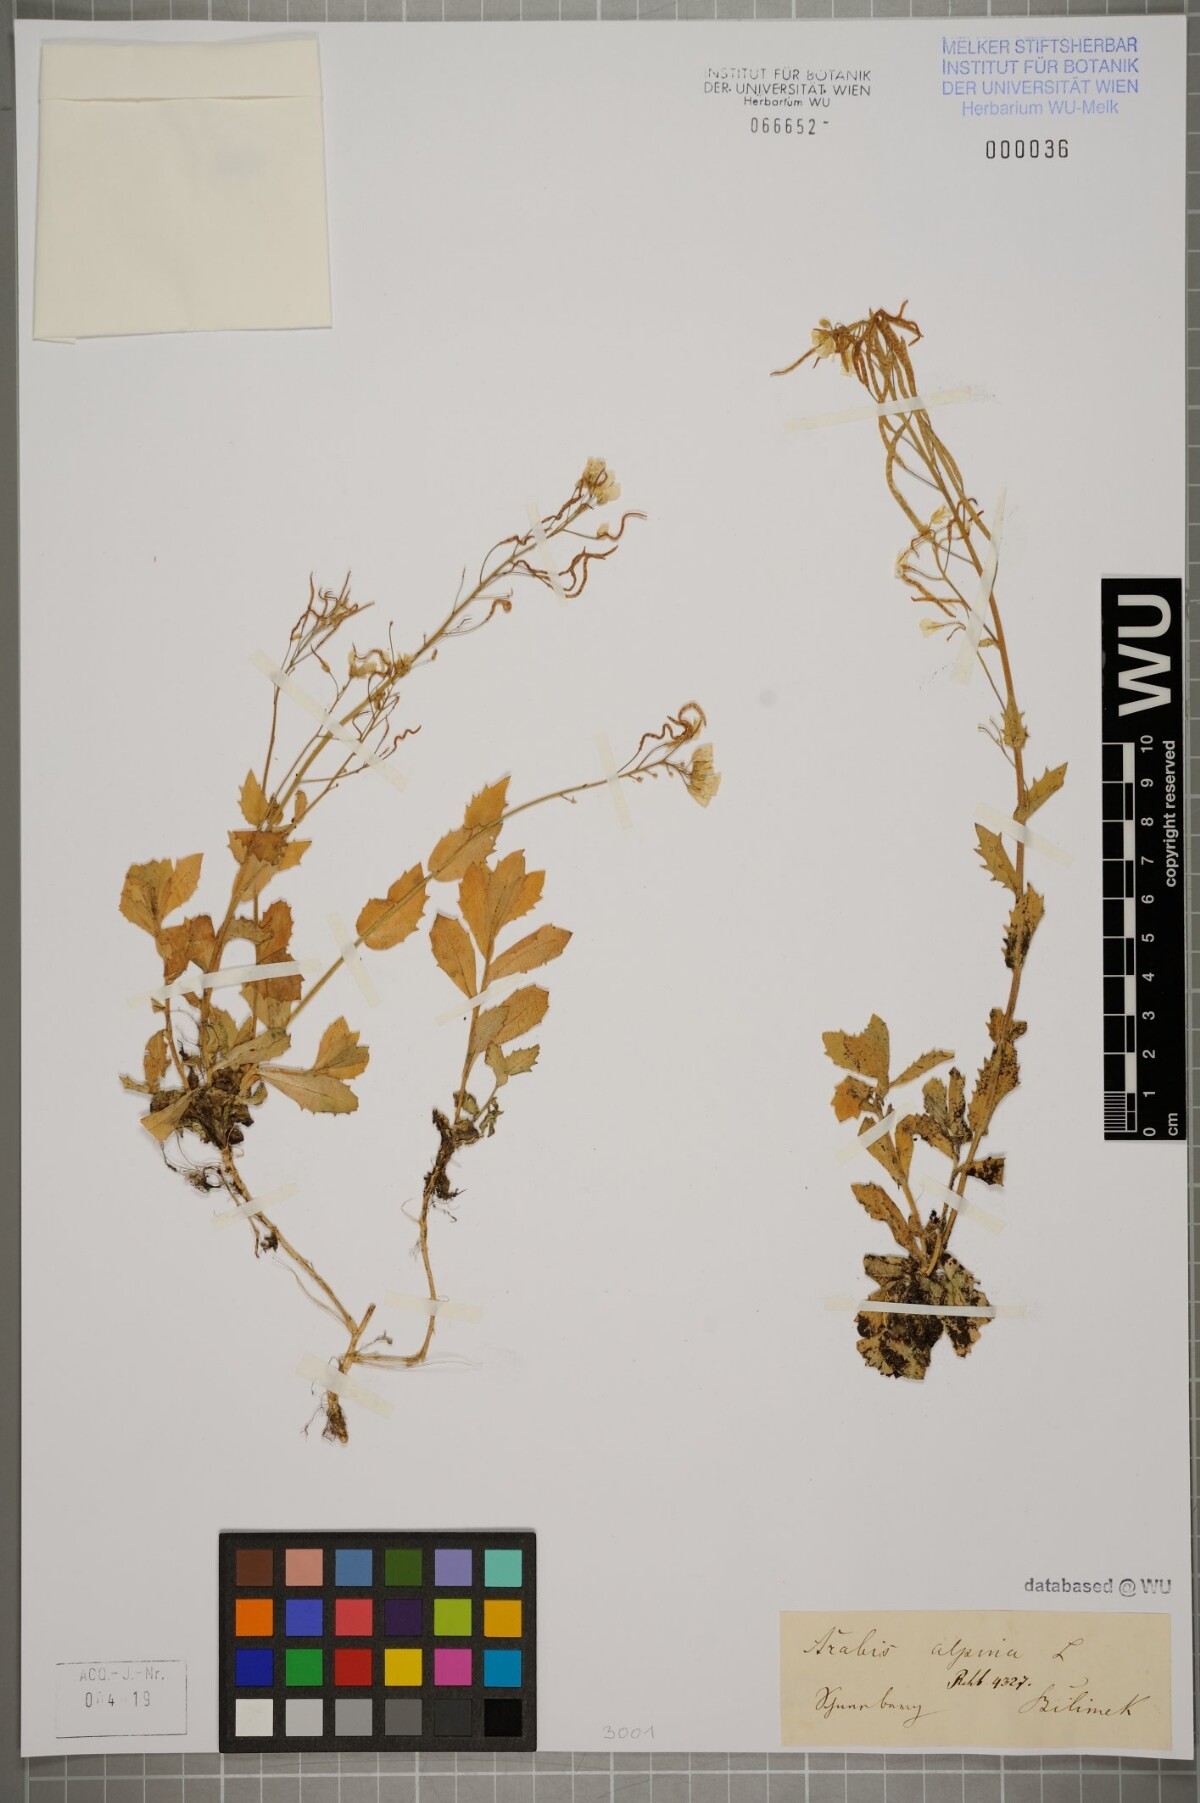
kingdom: Plantae
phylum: Tracheophyta
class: Magnoliopsida
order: Brassicales
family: Brassicaceae
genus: Arabis
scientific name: Arabis alpina
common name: Alpine rock-cress
